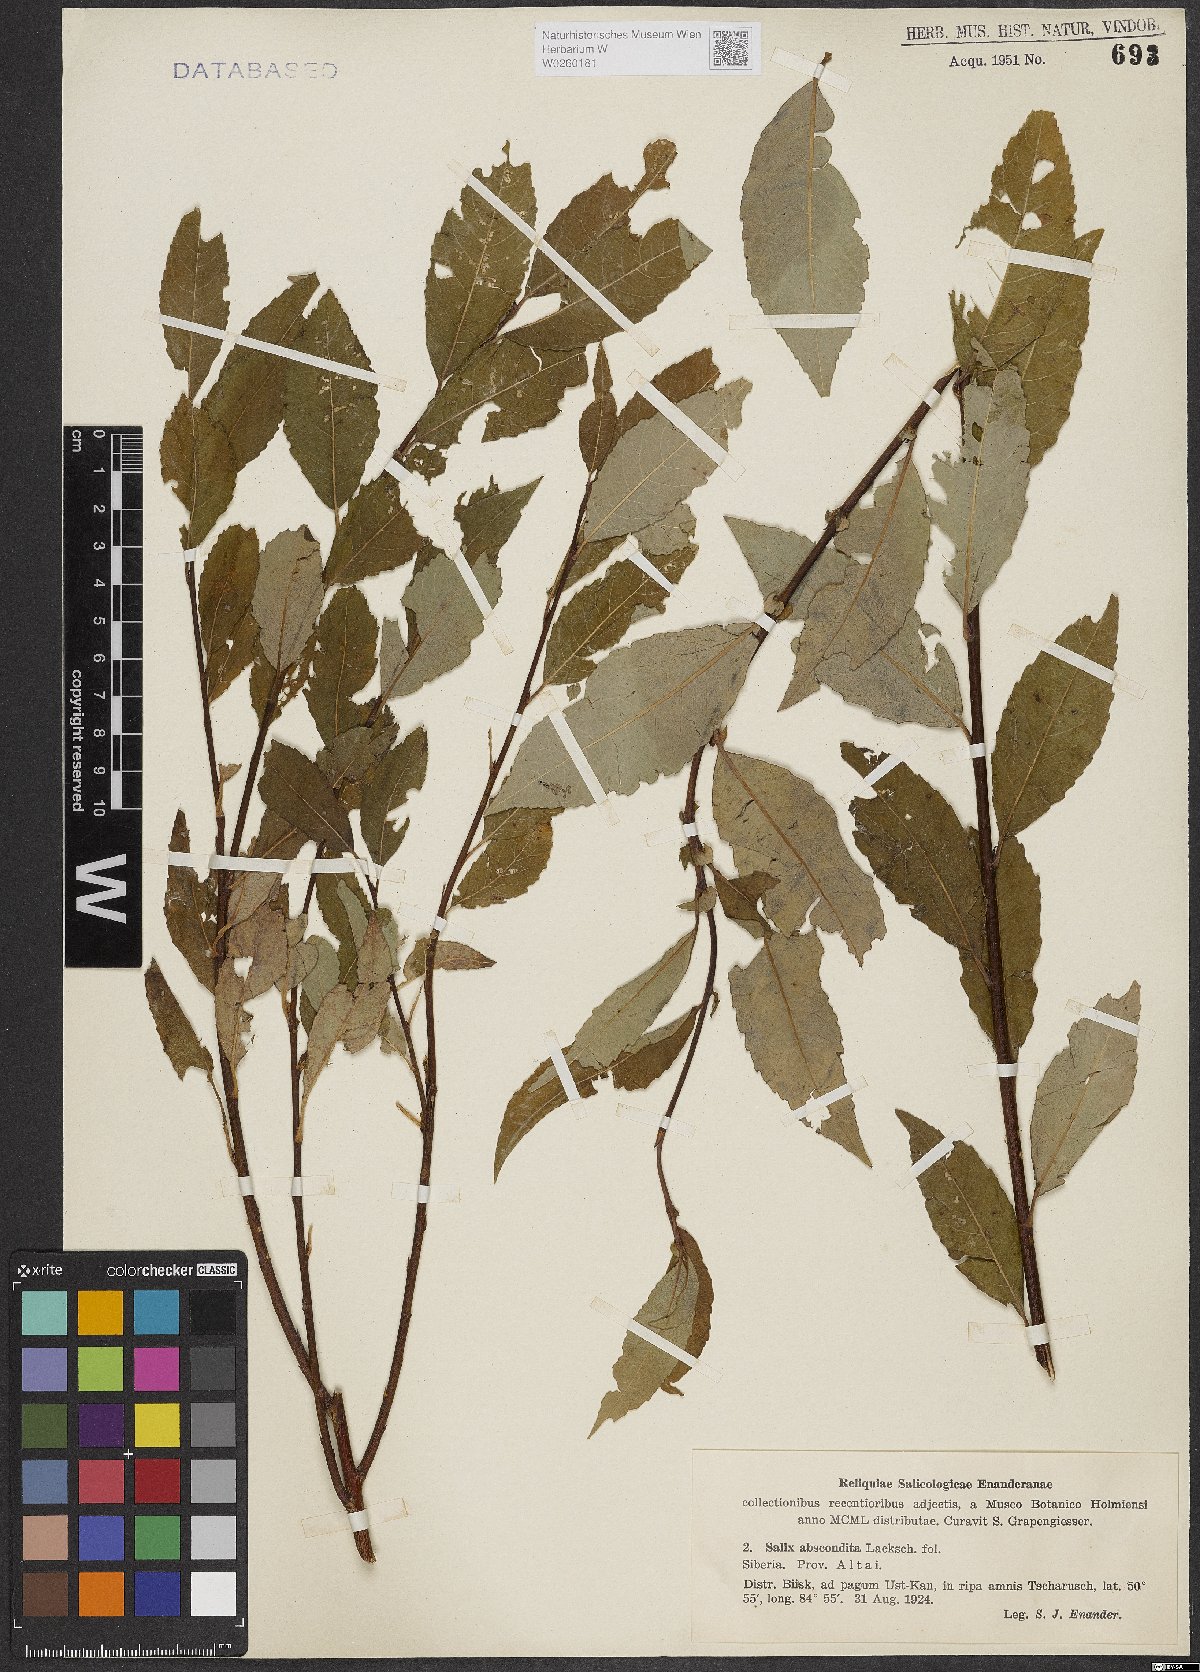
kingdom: Plantae
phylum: Tracheophyta
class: Magnoliopsida
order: Malpighiales
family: Salicaceae
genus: Salix
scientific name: Salix abscondita
